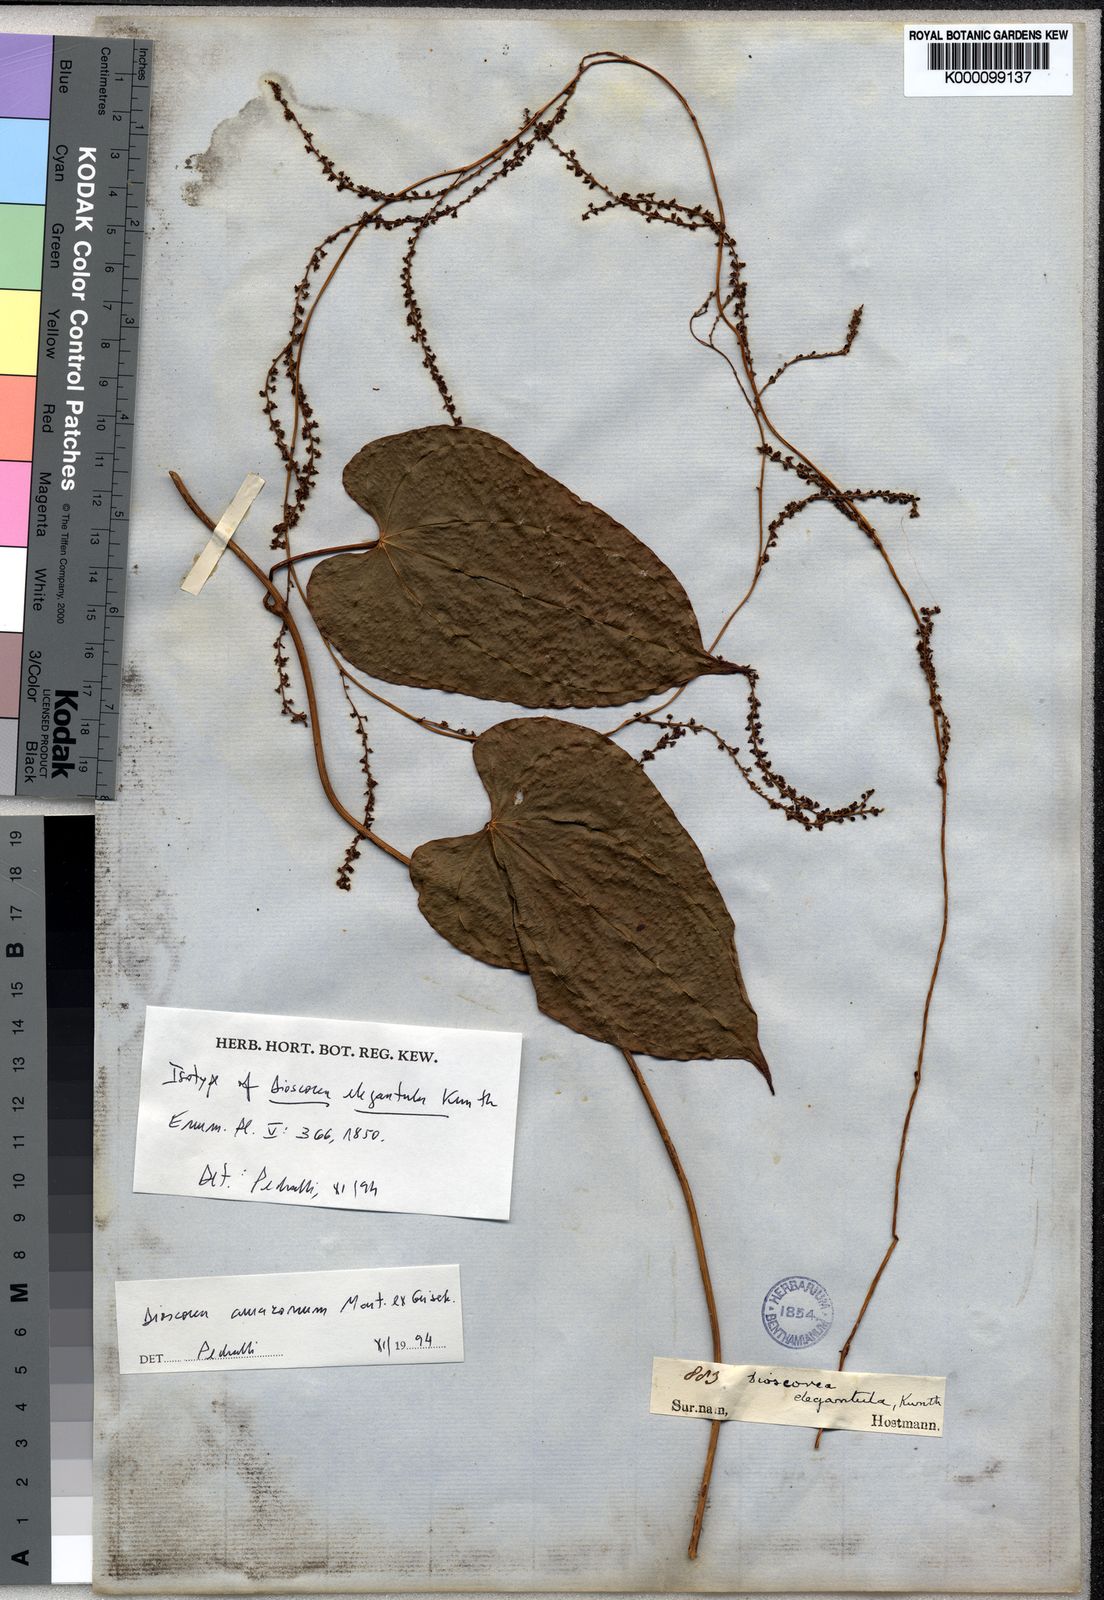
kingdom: Plantae
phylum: Tracheophyta
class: Liliopsida
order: Dioscoreales
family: Dioscoreaceae
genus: Dioscorea
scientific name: Dioscorea amazonum
